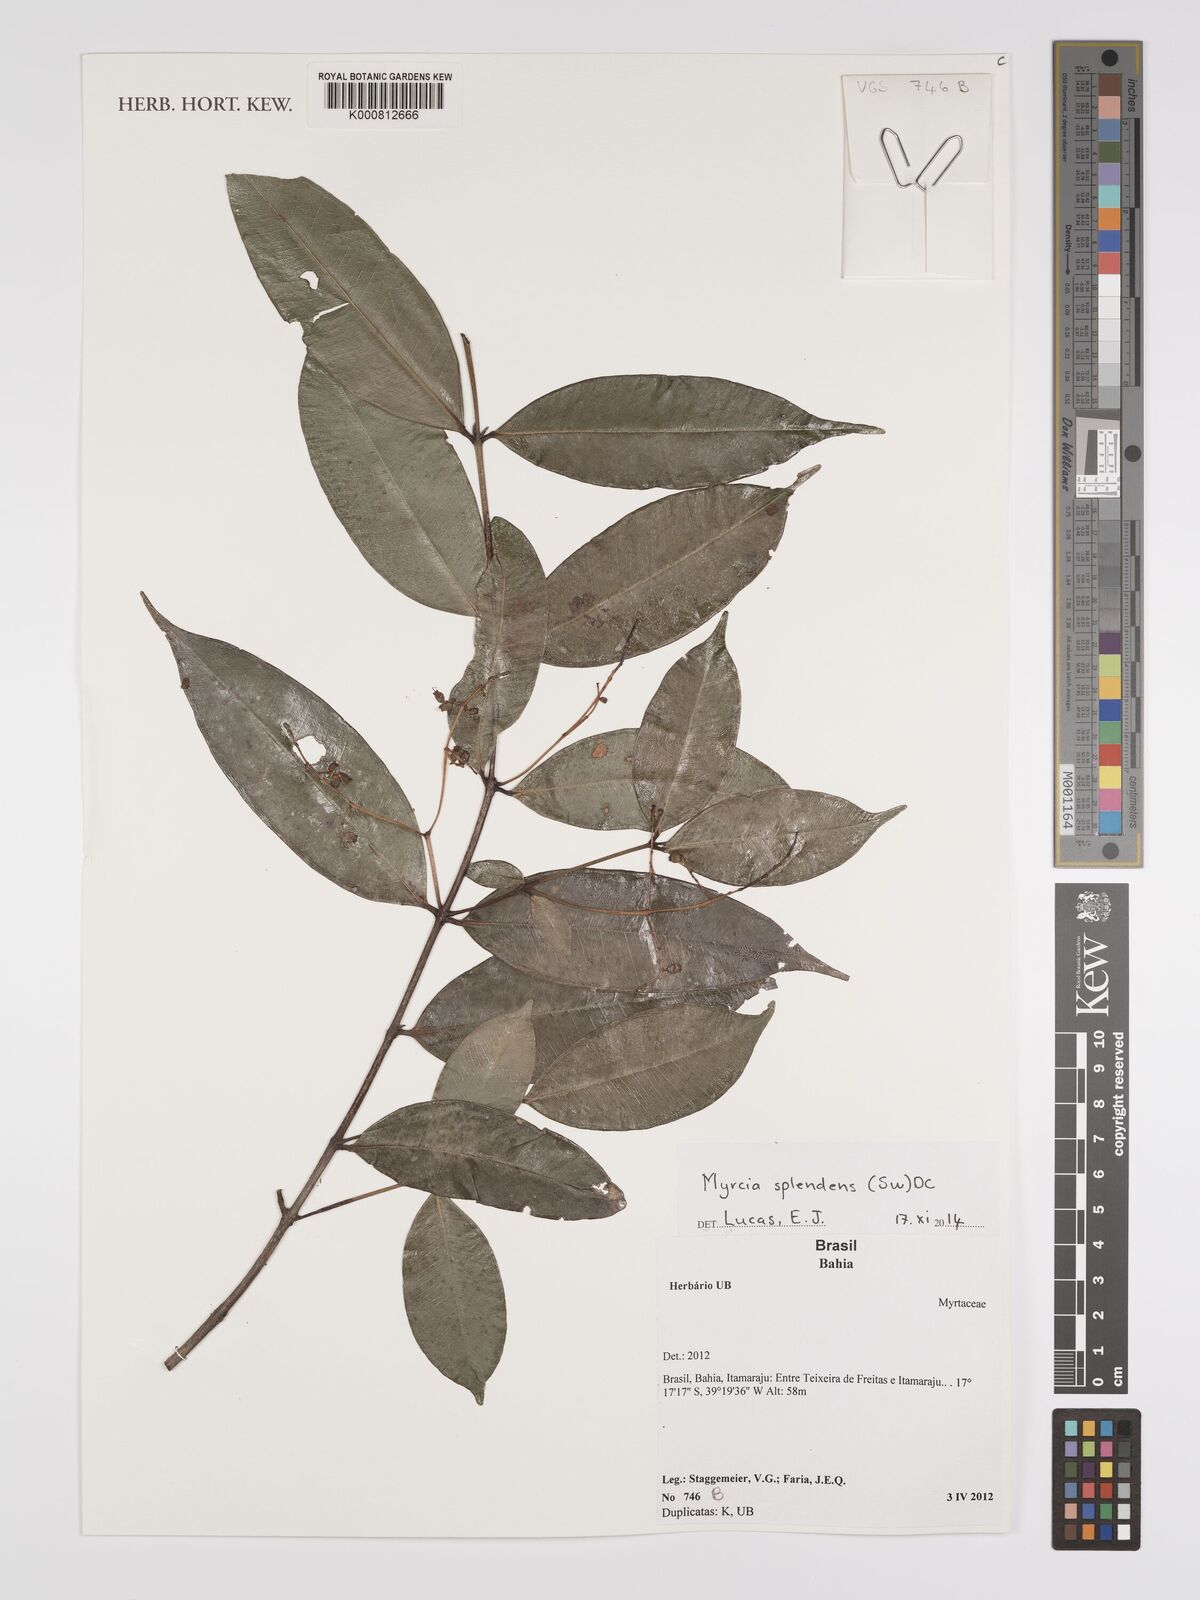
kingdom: Plantae
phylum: Tracheophyta
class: Magnoliopsida
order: Myrtales
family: Myrtaceae
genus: Myrcia
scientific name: Myrcia splendens
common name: Surinam cherry
